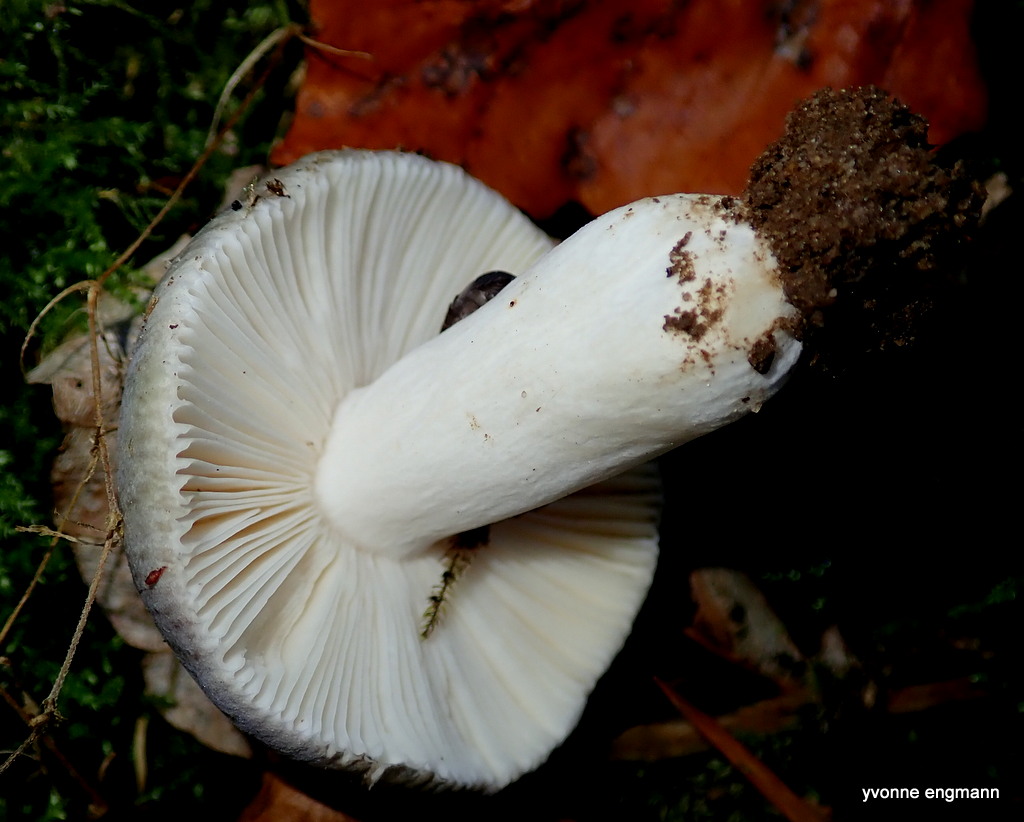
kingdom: Fungi
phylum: Basidiomycota
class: Agaricomycetes
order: Russulales
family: Russulaceae
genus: Russula
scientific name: Russula
